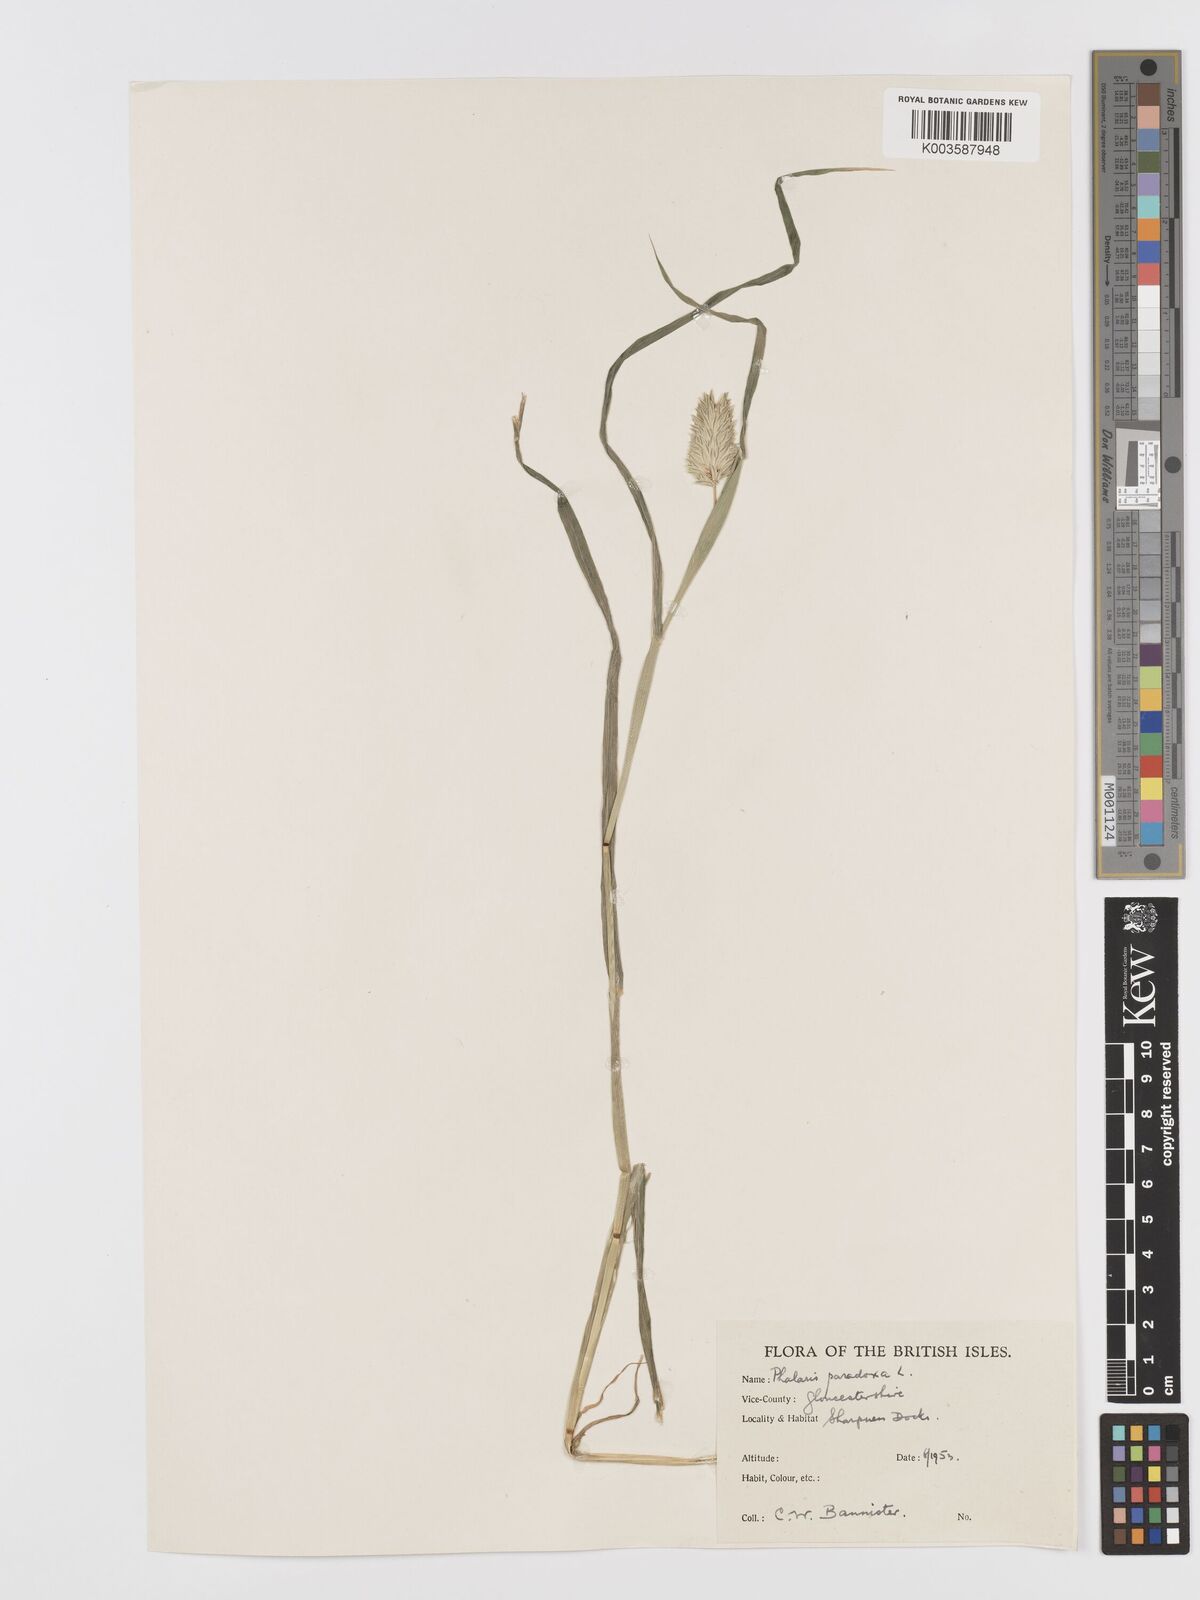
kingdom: Plantae
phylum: Tracheophyta
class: Liliopsida
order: Poales
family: Poaceae
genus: Phalaris
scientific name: Phalaris brachystachys
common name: Confused canary-grass
